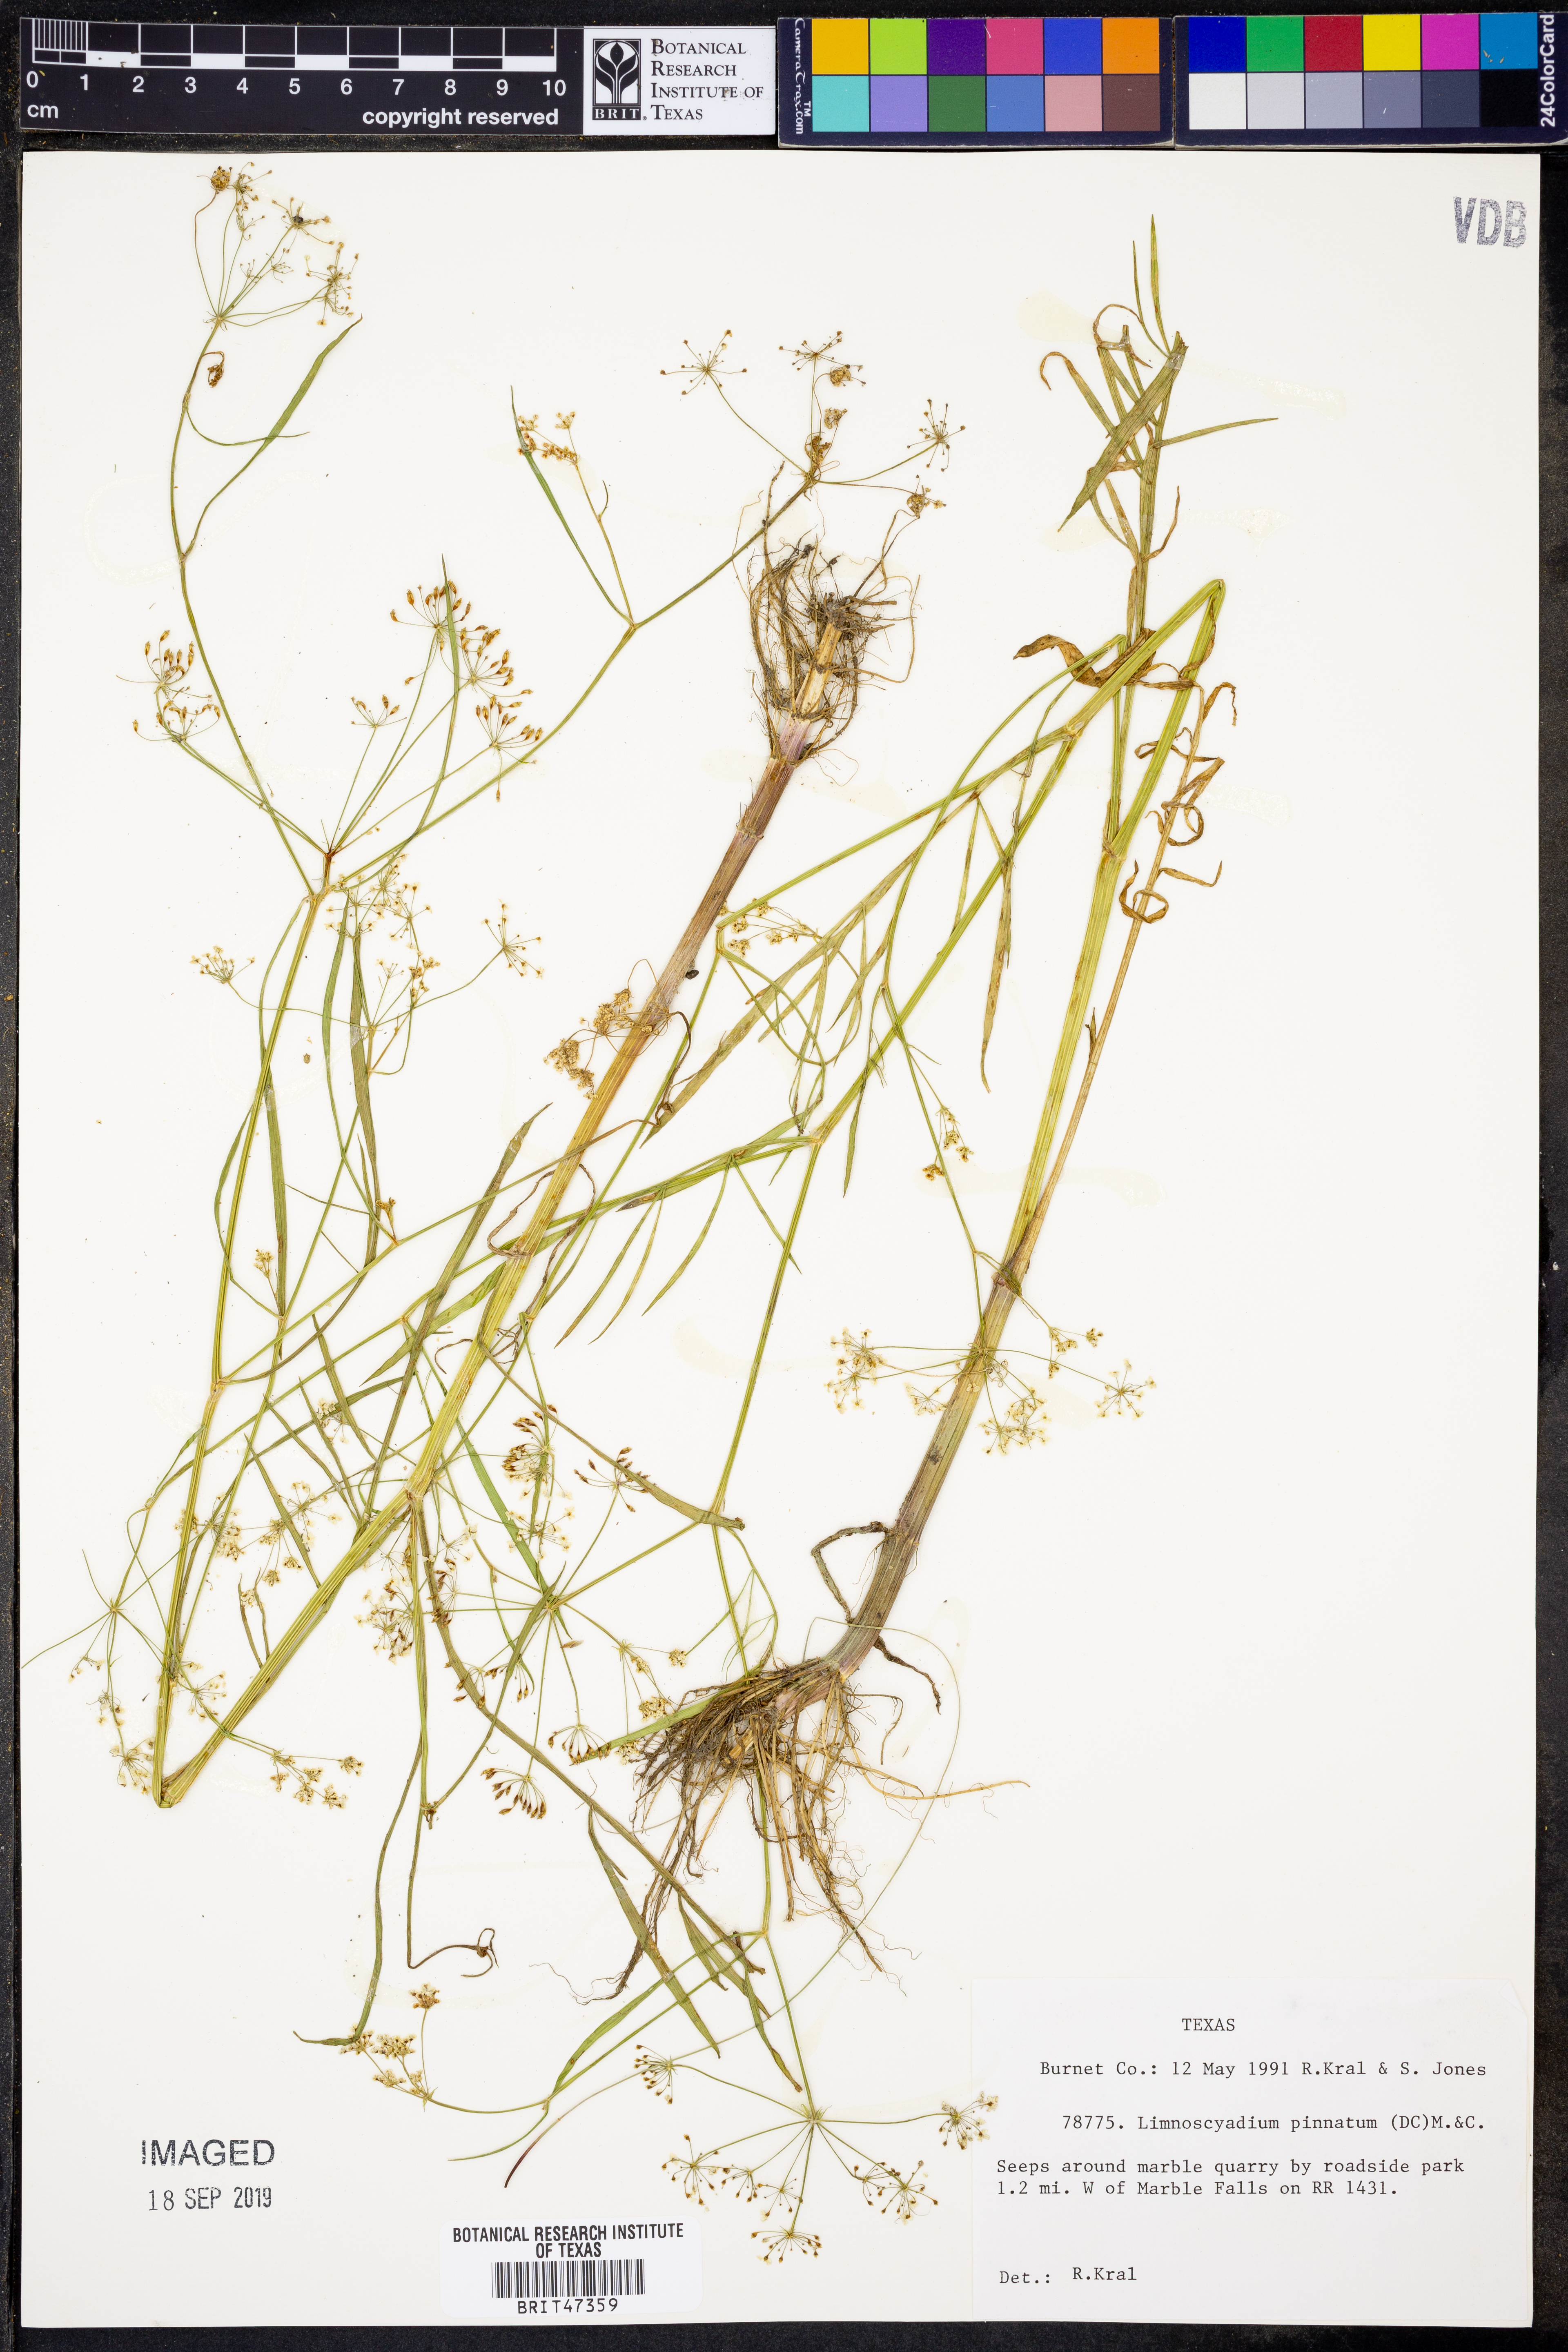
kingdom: Plantae
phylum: Tracheophyta
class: Magnoliopsida
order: Apiales
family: Apiaceae
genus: Limnosciadium
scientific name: Limnosciadium pinnatum
